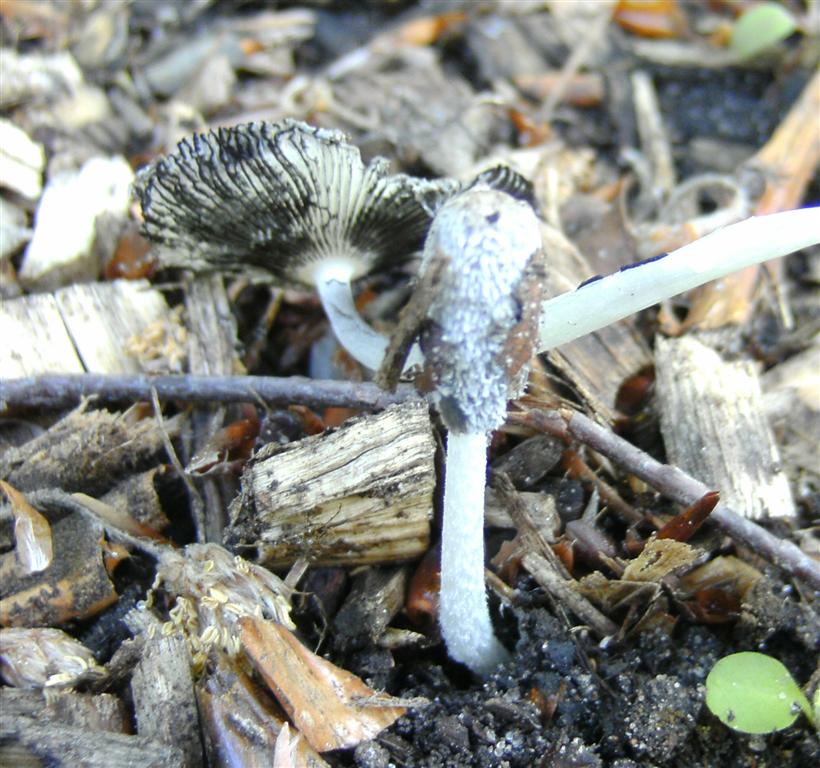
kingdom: Fungi
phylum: Basidiomycota
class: Agaricomycetes
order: Agaricales
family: Psathyrellaceae
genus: Coprinopsis
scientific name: Coprinopsis lagopus
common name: dunstokket blækhat
